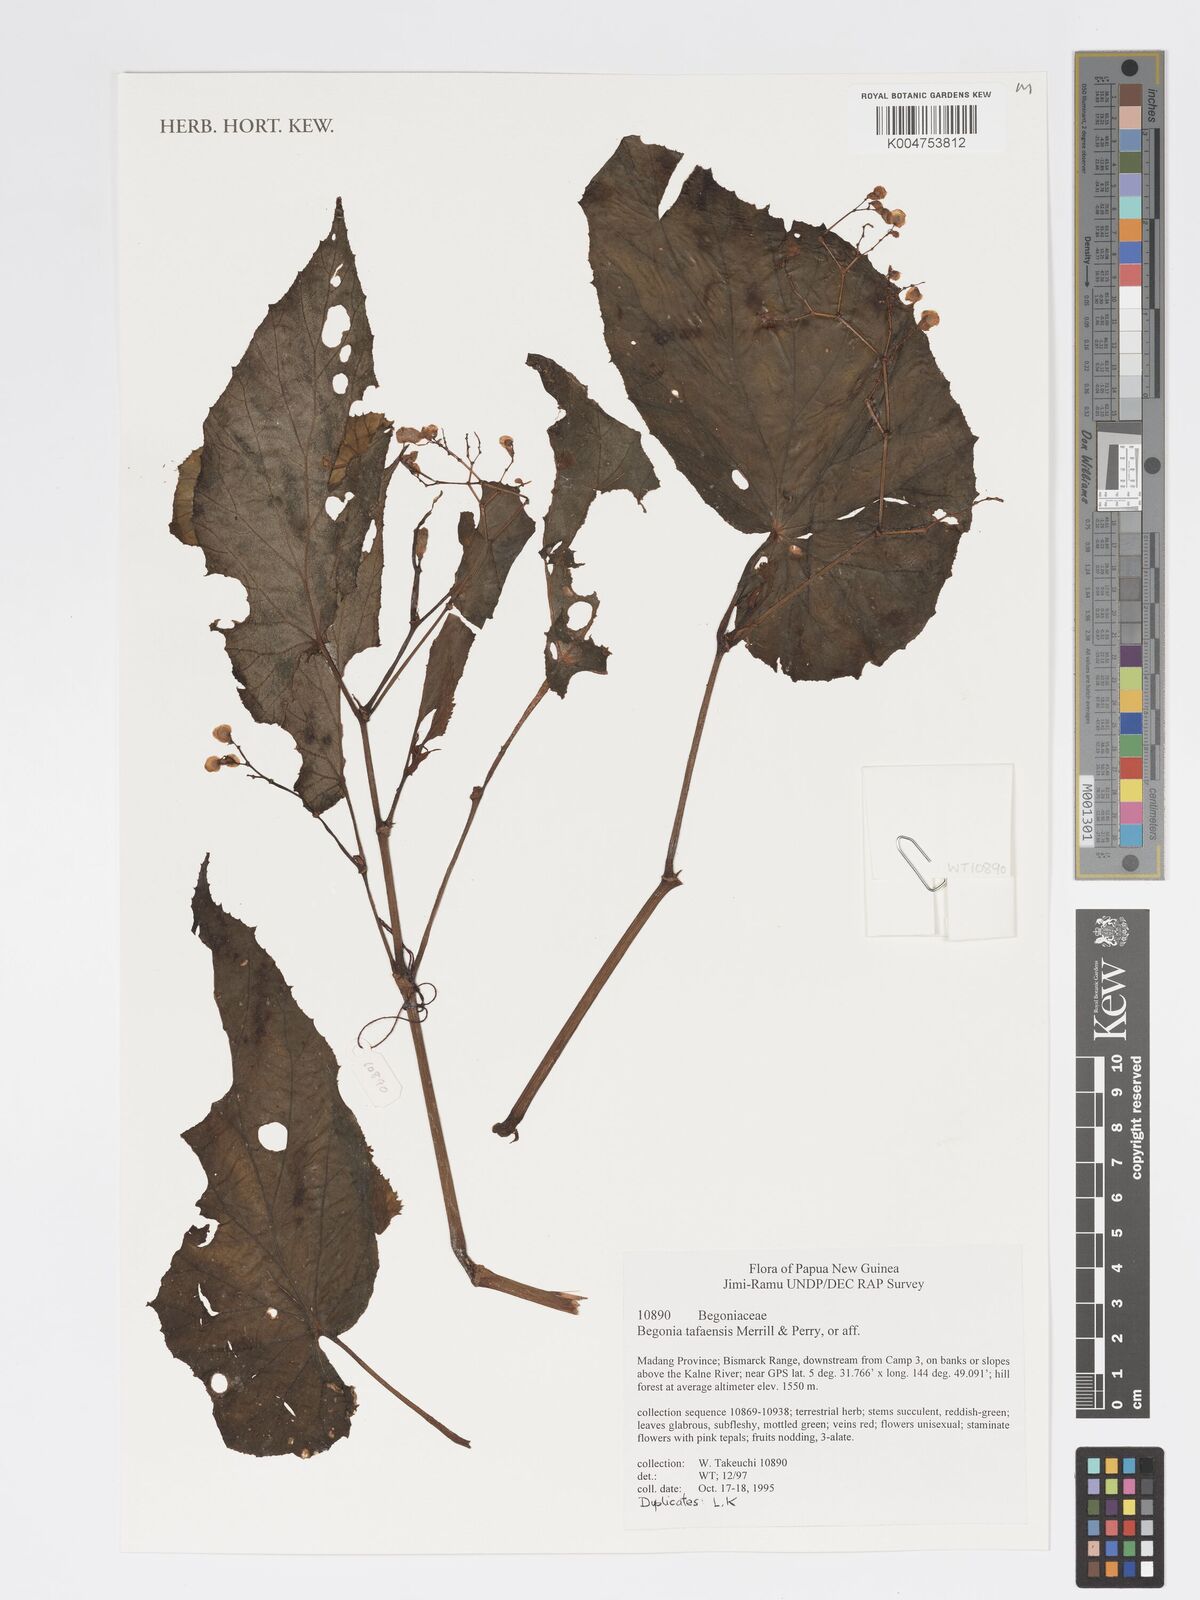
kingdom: Plantae
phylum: Tracheophyta
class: Magnoliopsida
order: Cucurbitales
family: Begoniaceae
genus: Begonia
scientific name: Begonia tafaensis
